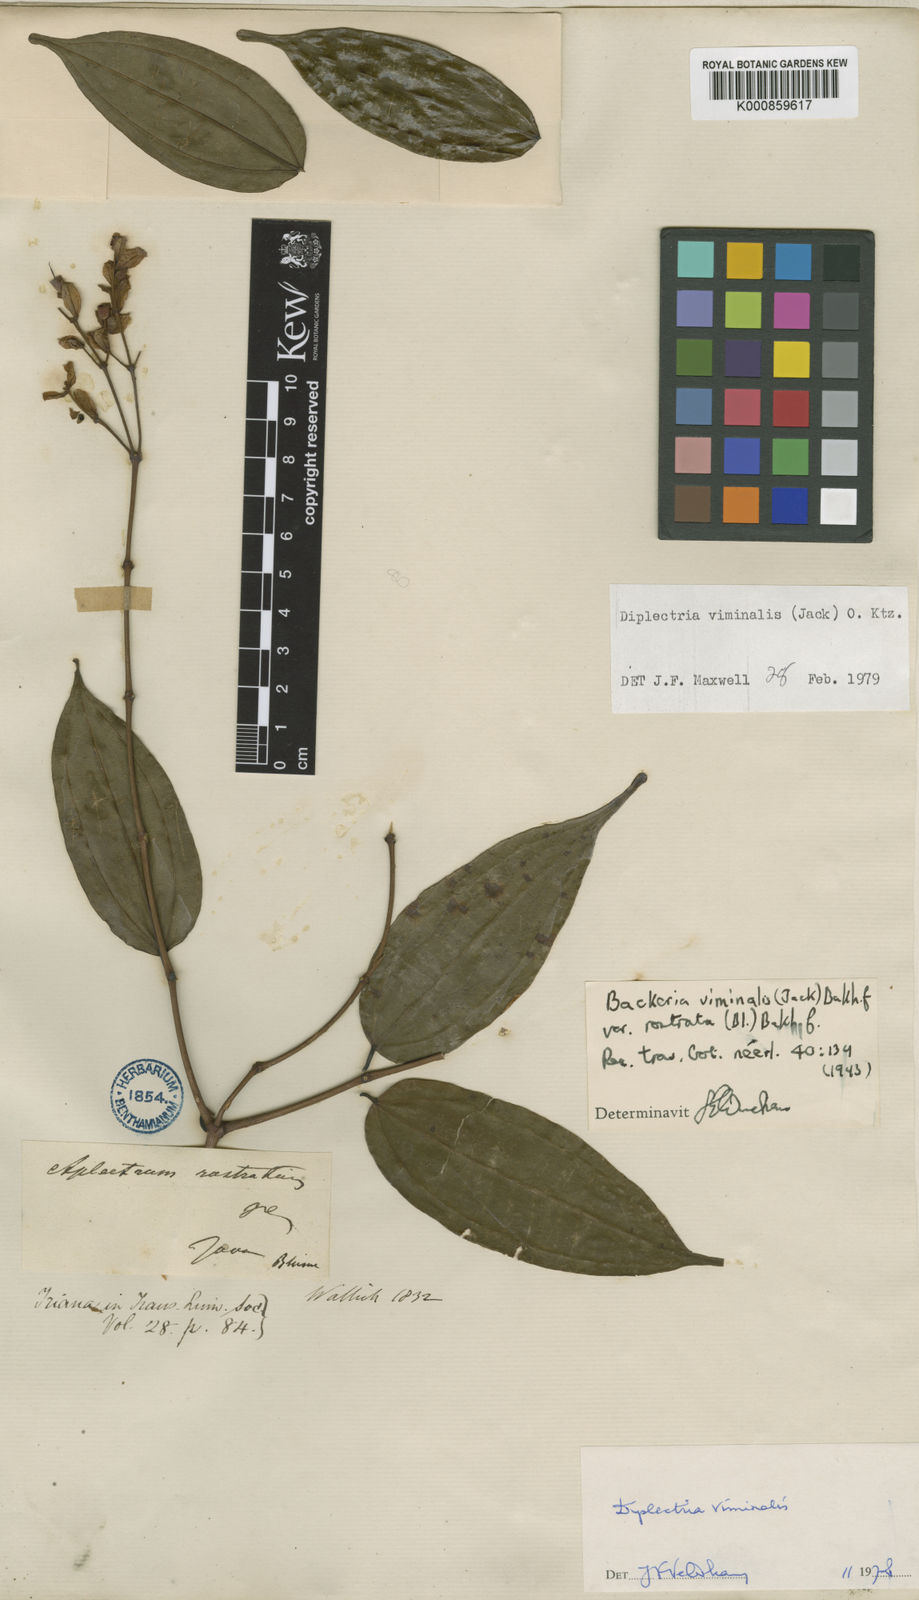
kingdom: Plantae
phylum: Tracheophyta
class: Magnoliopsida
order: Myrtales
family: Melastomataceae
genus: Diplectria
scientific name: Diplectria viminalis
